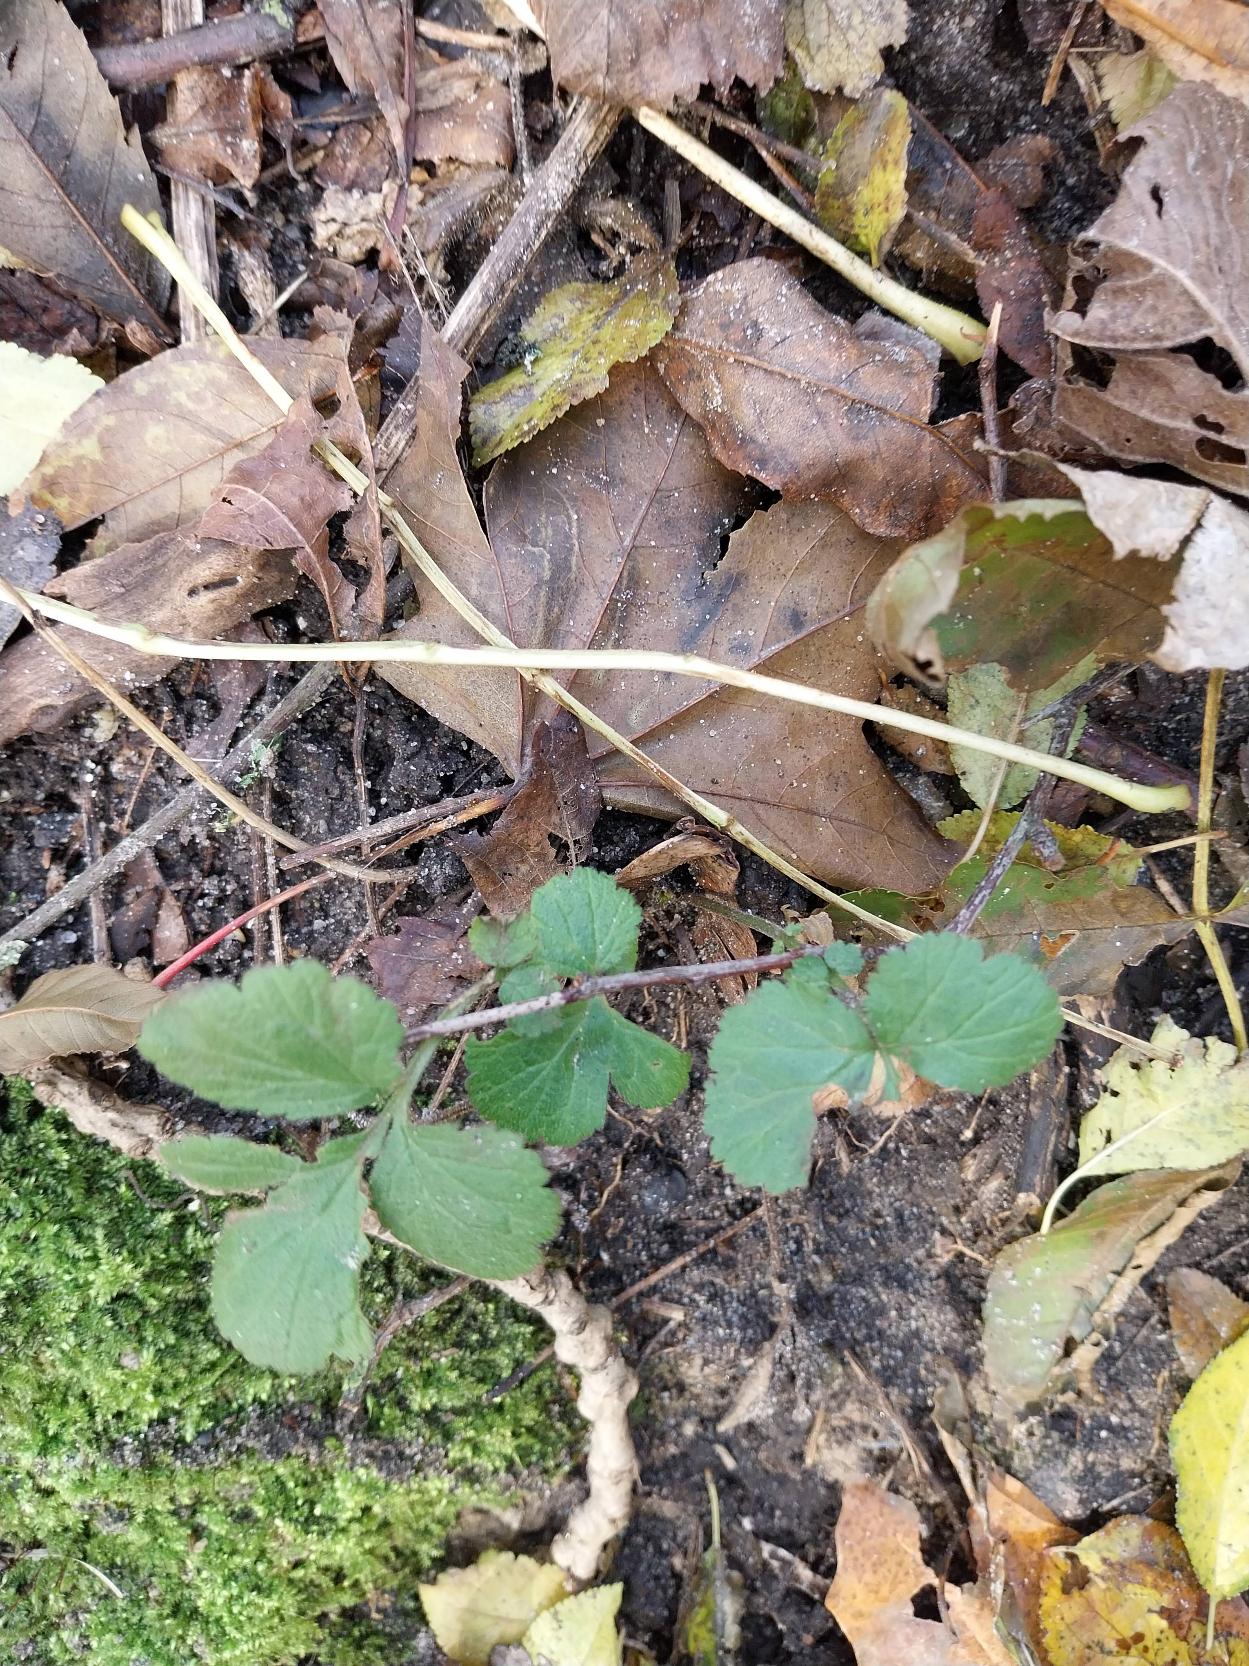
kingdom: Plantae
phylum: Tracheophyta
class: Magnoliopsida
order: Rosales
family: Rosaceae
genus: Geum
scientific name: Geum urbanum
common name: Feber-nellikerod
